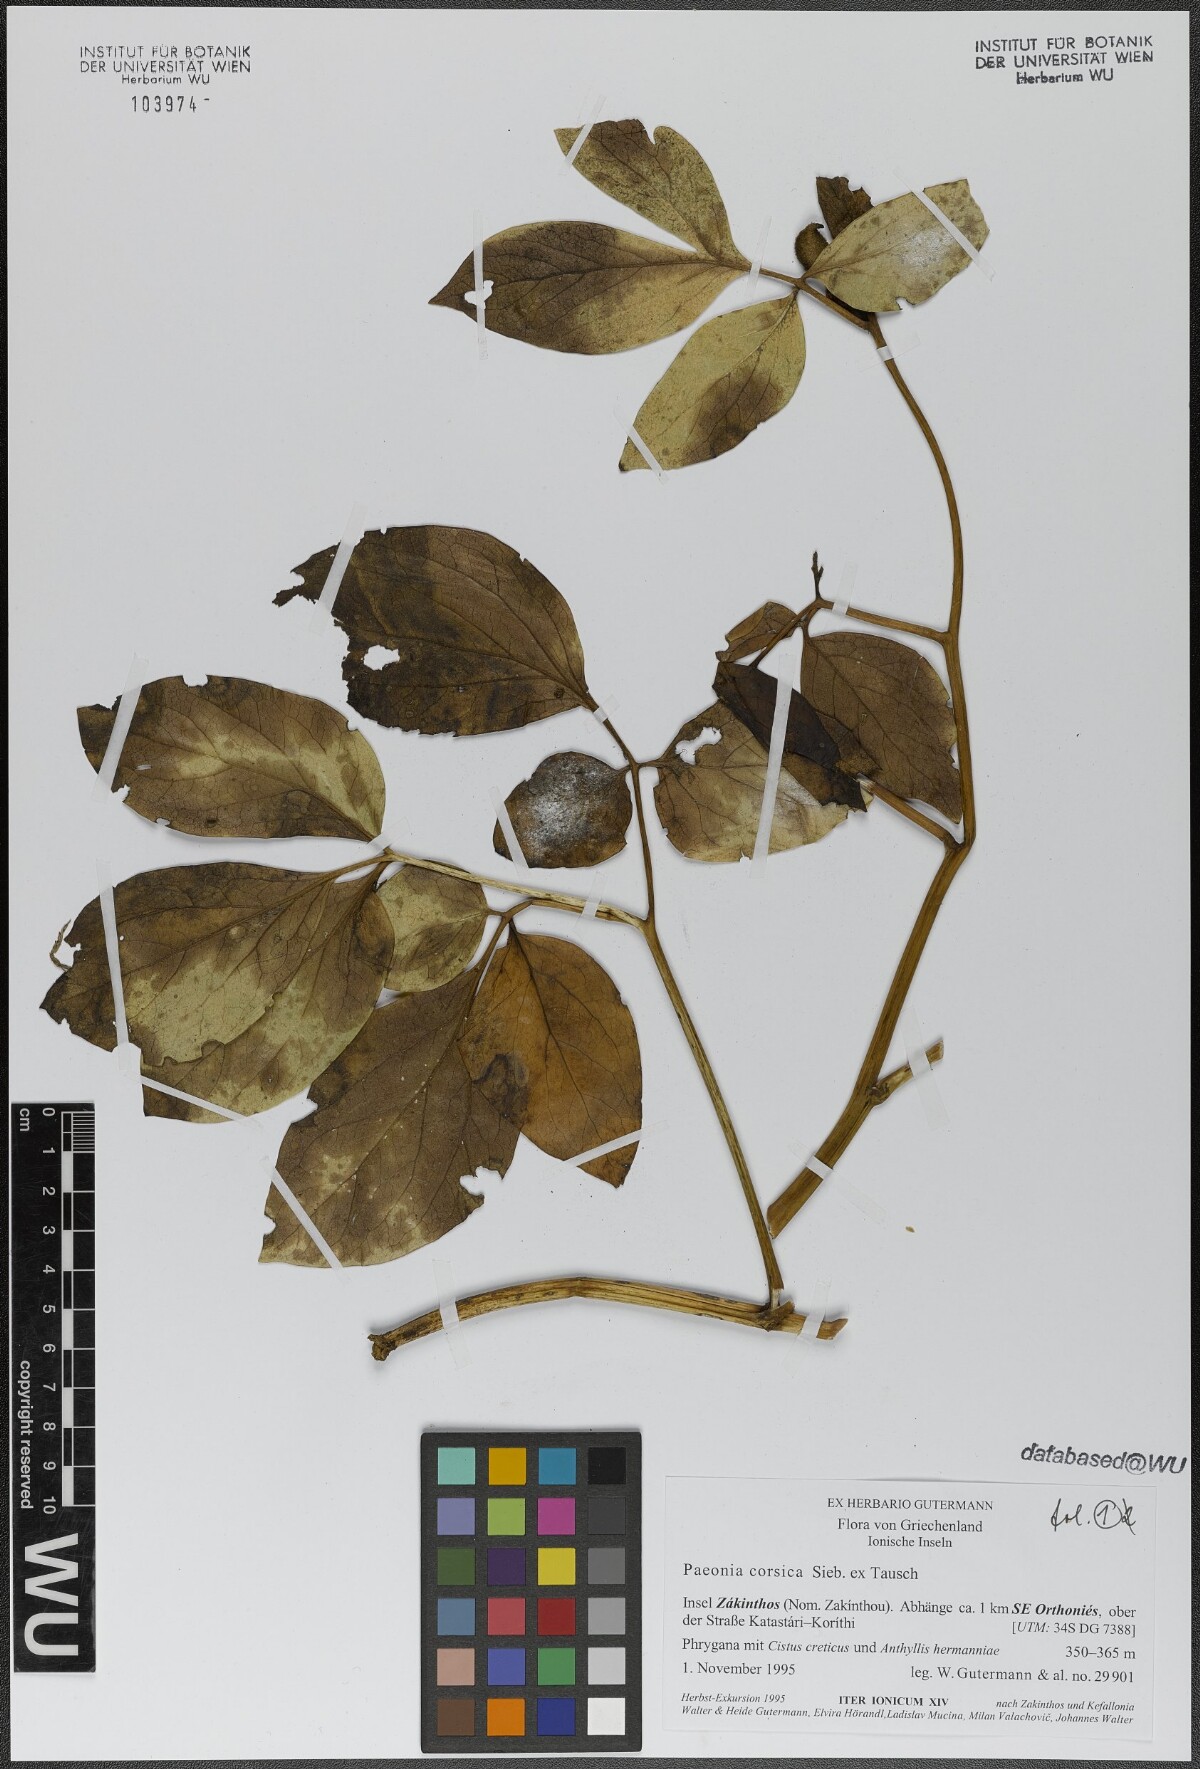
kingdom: Plantae
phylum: Tracheophyta
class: Magnoliopsida
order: Saxifragales
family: Paeoniaceae
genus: Paeonia
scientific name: Paeonia corsica
